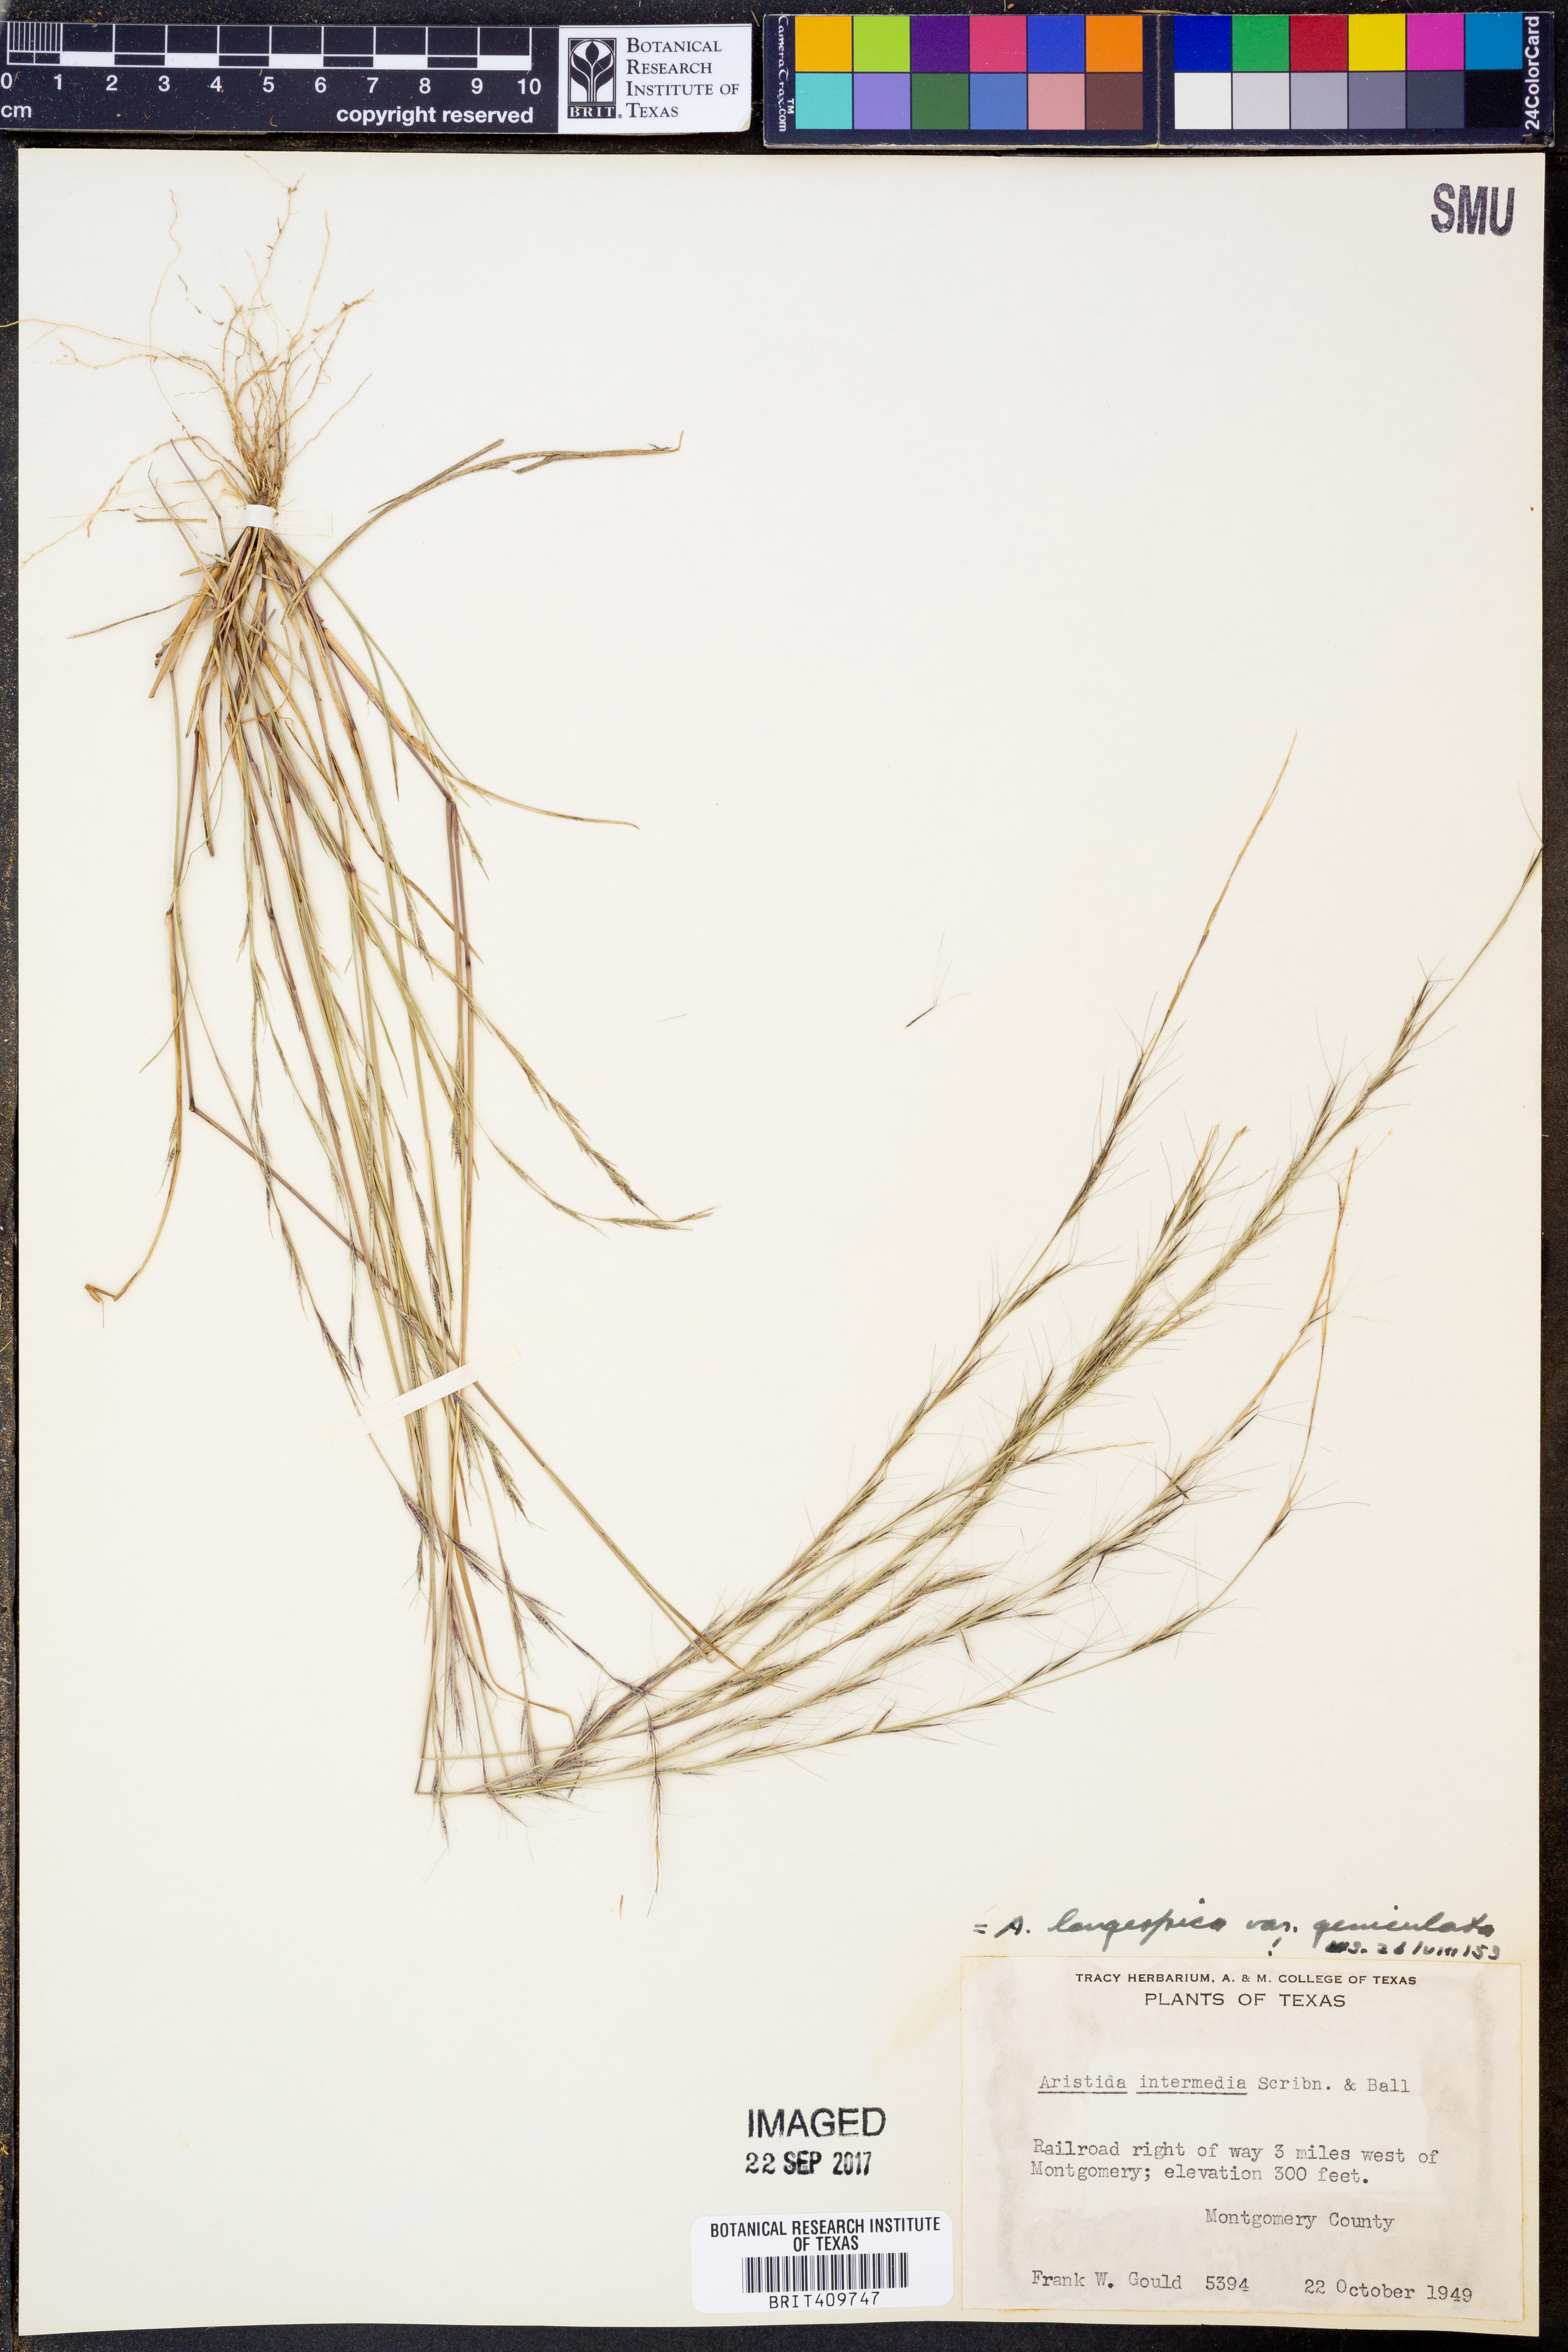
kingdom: Plantae
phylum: Tracheophyta
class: Liliopsida
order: Poales
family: Poaceae
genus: Aristida
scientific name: Aristida longespica
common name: Long-spiked triple-awned grass
